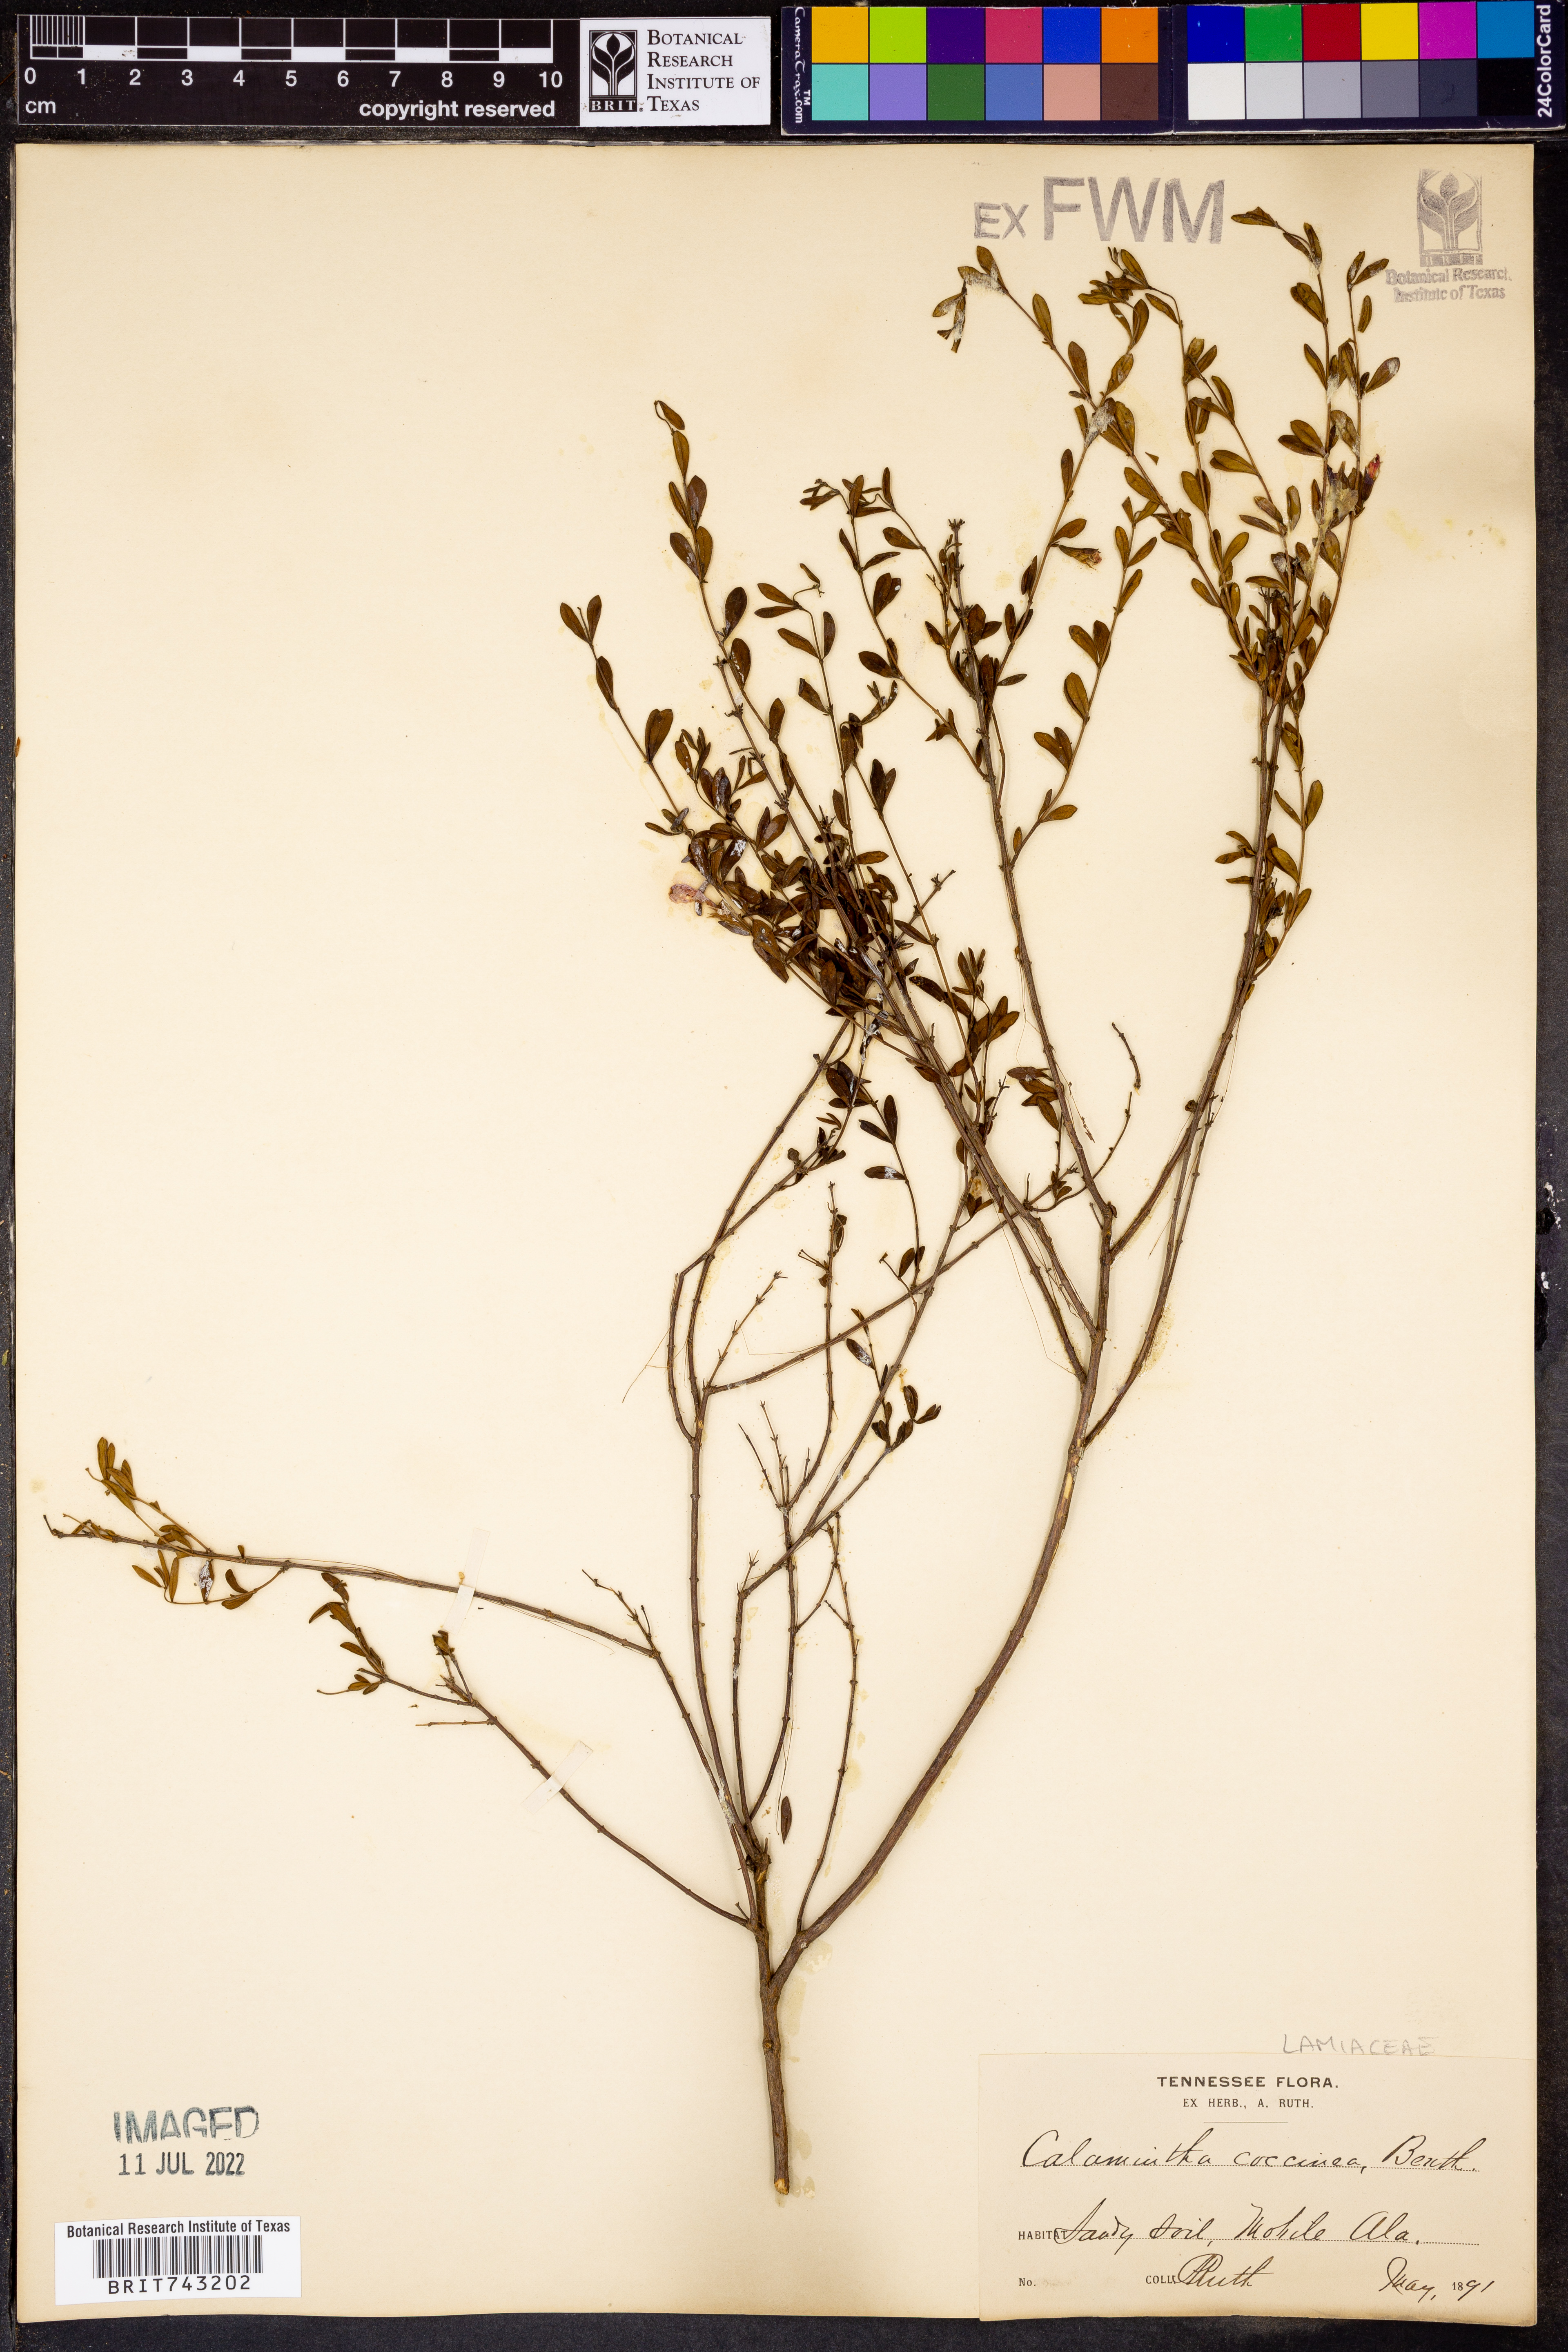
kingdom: Plantae
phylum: Tracheophyta
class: Magnoliopsida
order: Lamiales
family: Lamiaceae
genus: Clinopodium
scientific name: Clinopodium coccineum
